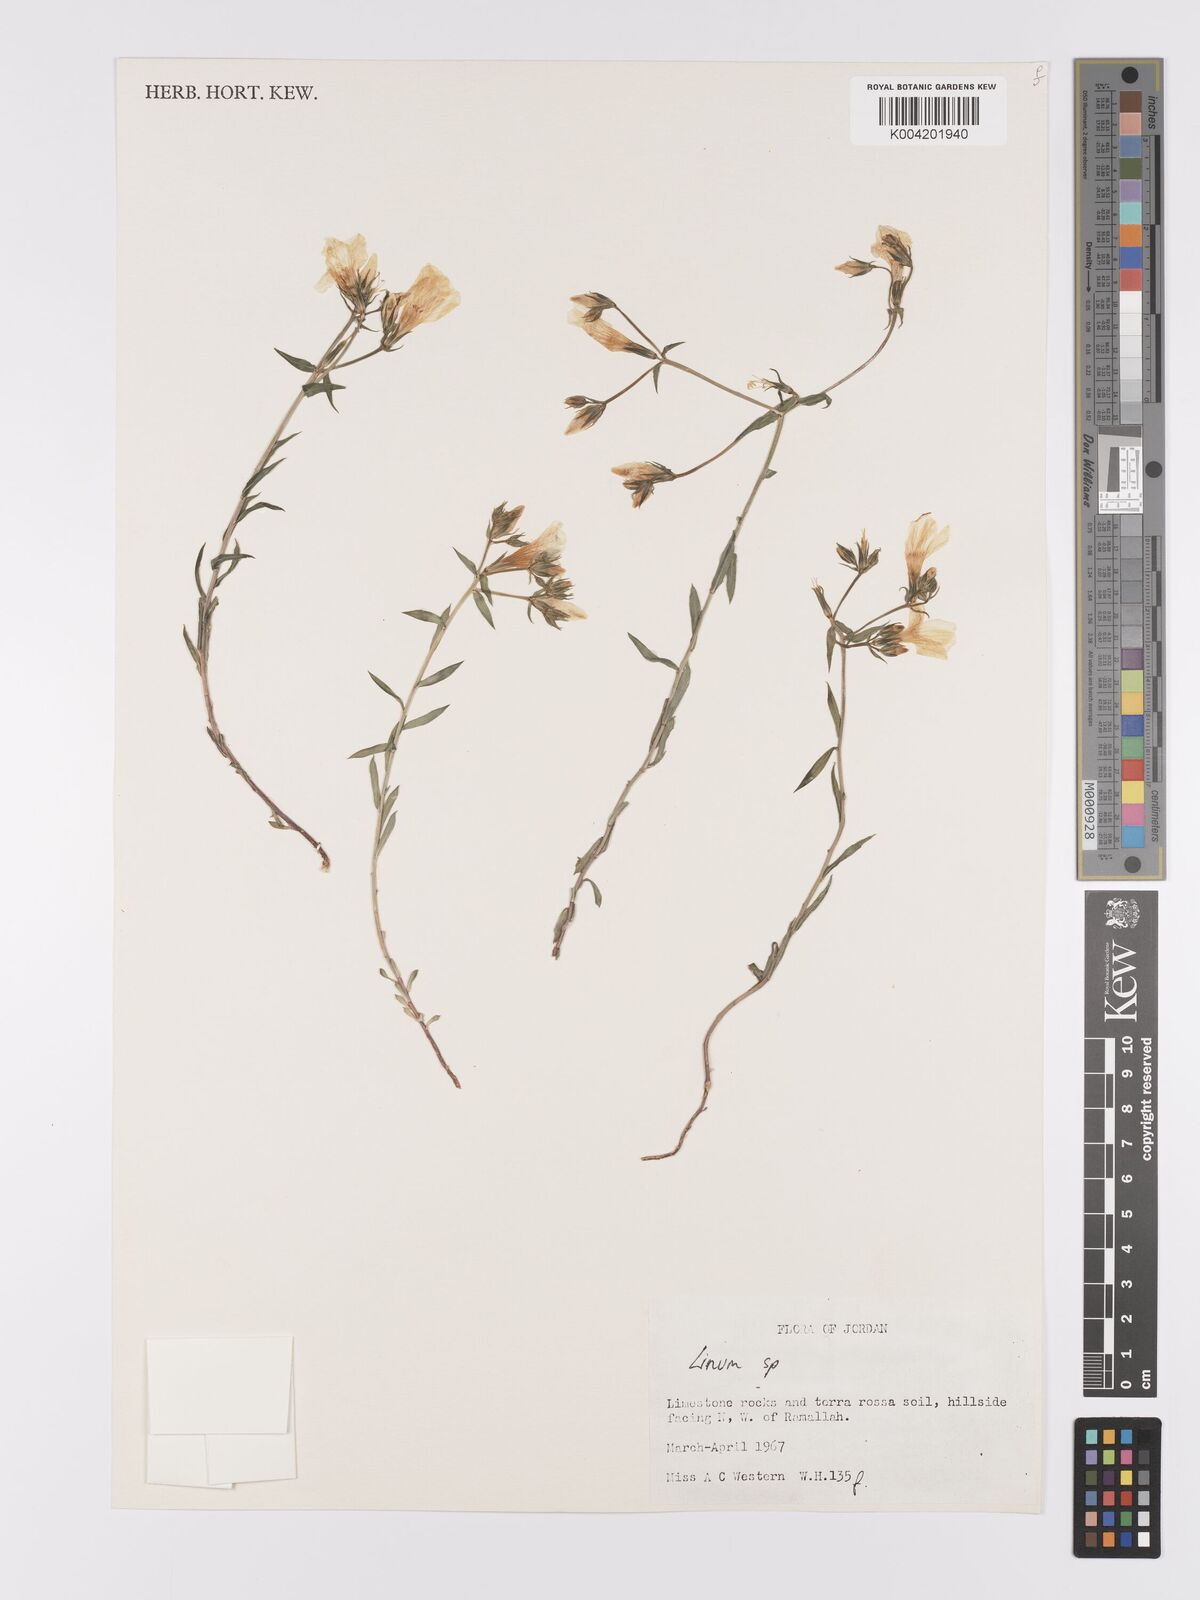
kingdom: Plantae
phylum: Tracheophyta
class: Magnoliopsida
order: Malpighiales
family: Linaceae
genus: Linum
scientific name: Linum
